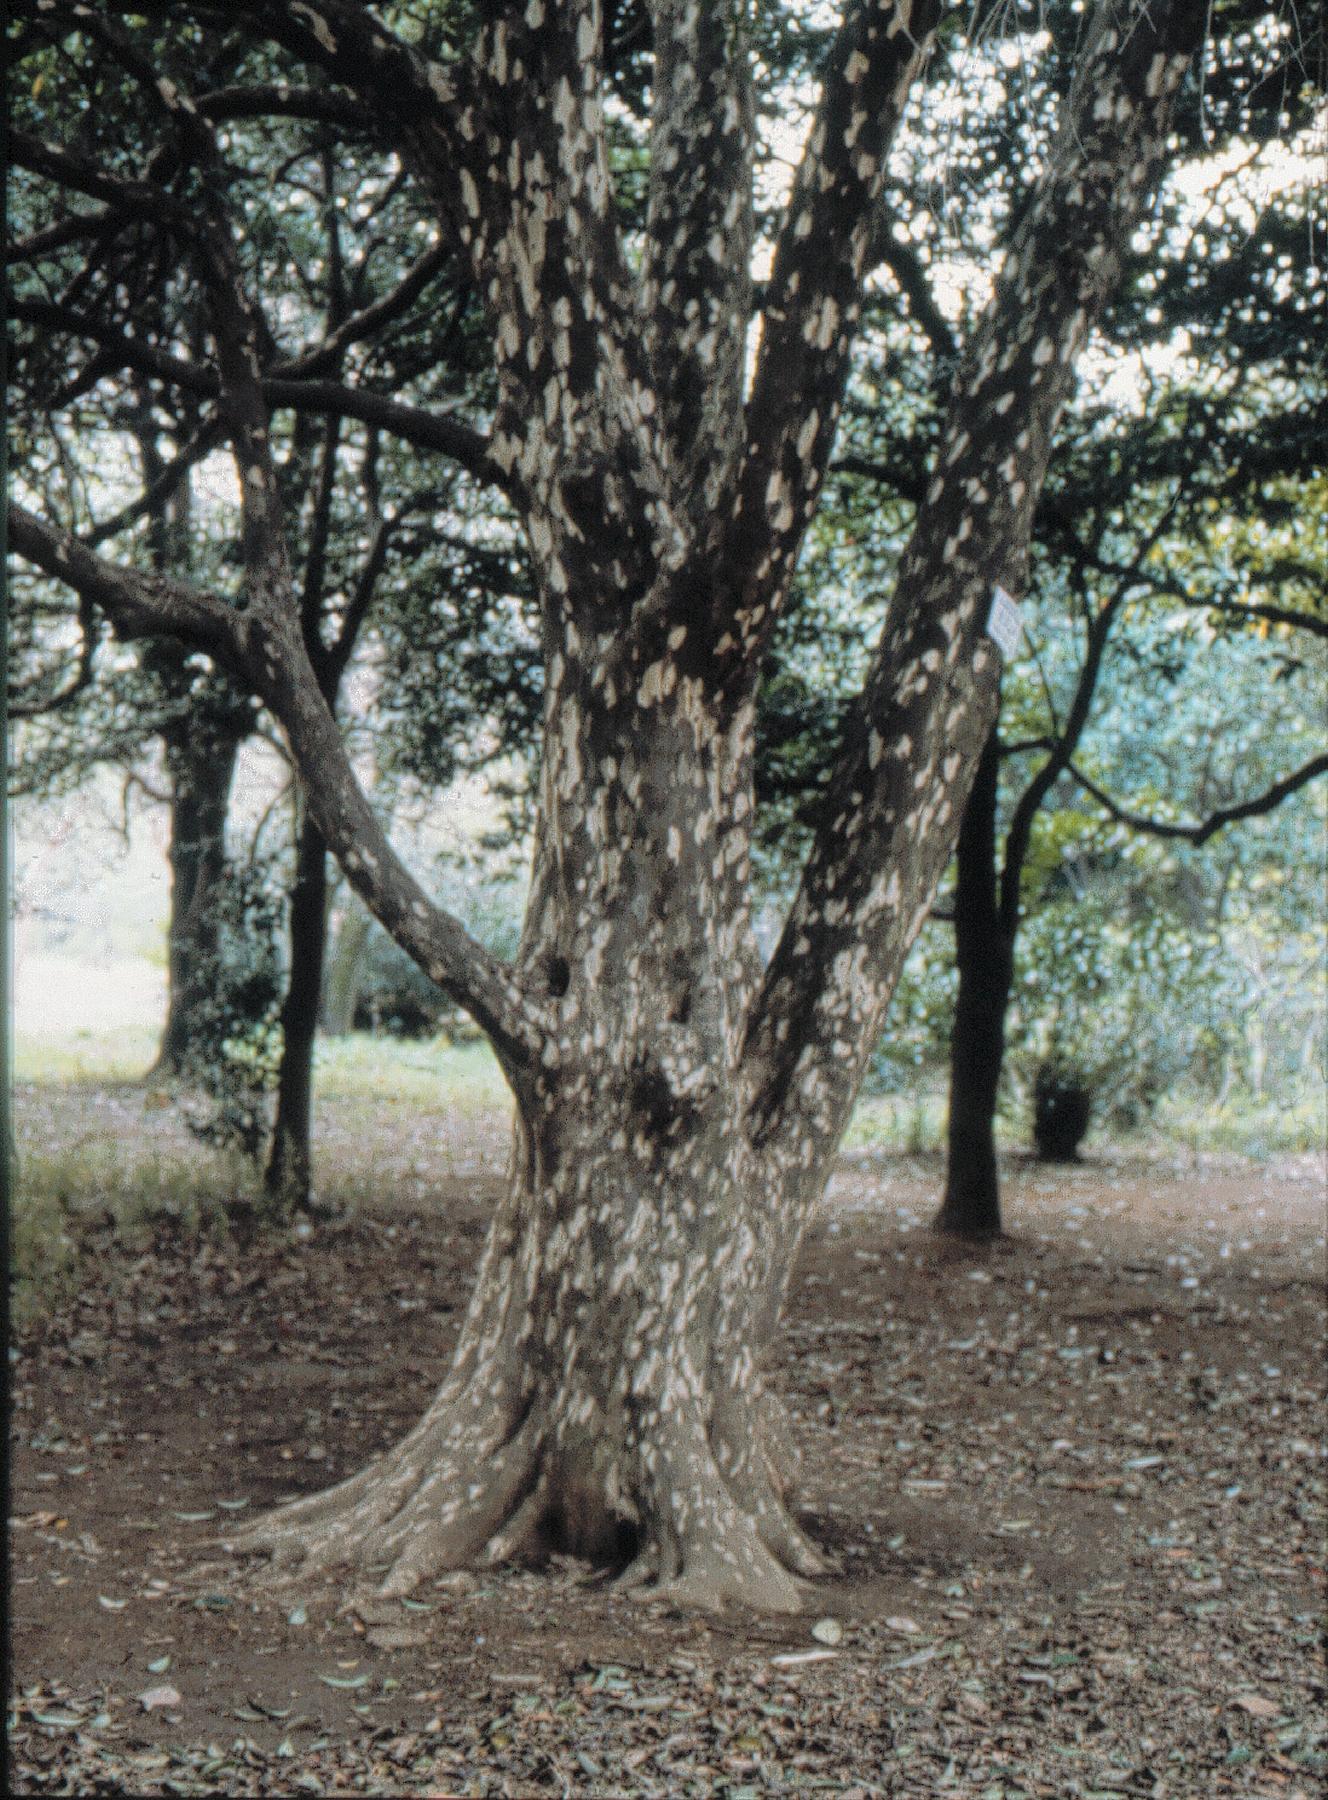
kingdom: Plantae
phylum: Tracheophyta
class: Magnoliopsida
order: Laurales
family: Lauraceae
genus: Litsea
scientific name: Litsea coreana
